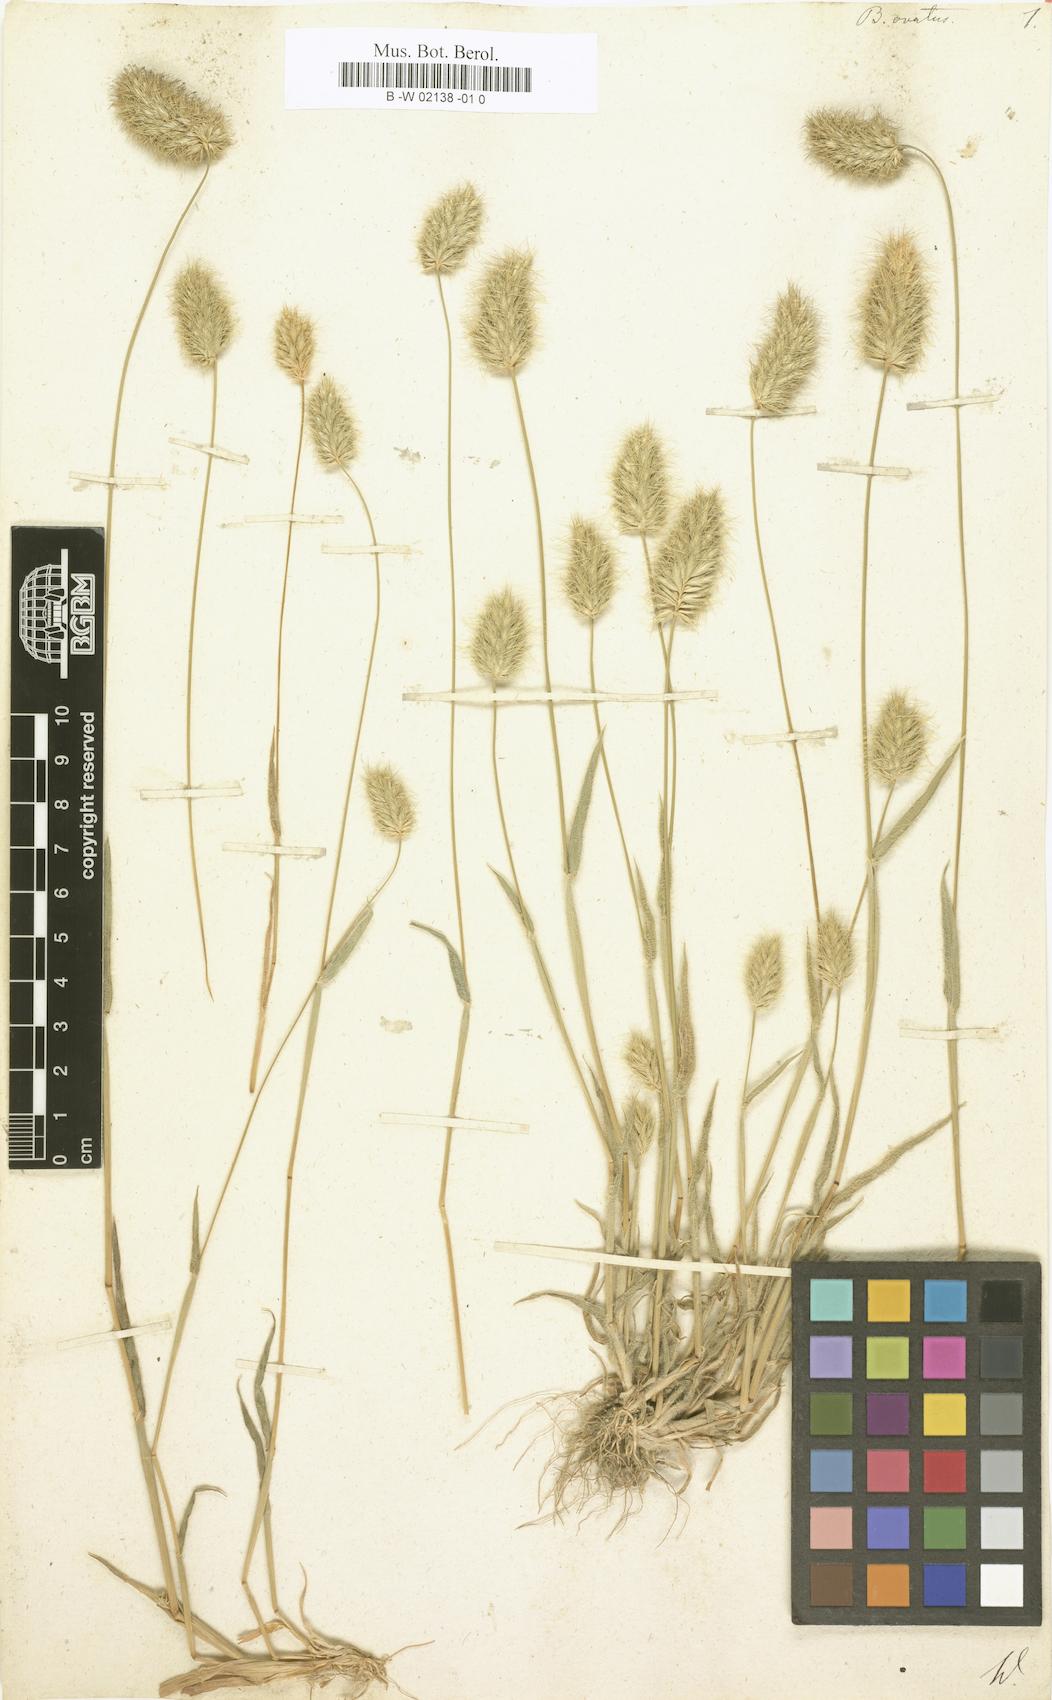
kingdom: Plantae
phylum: Tracheophyta
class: Liliopsida
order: Poales
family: Poaceae
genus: Bromus
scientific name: Bromus scoparius
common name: Broom brome
